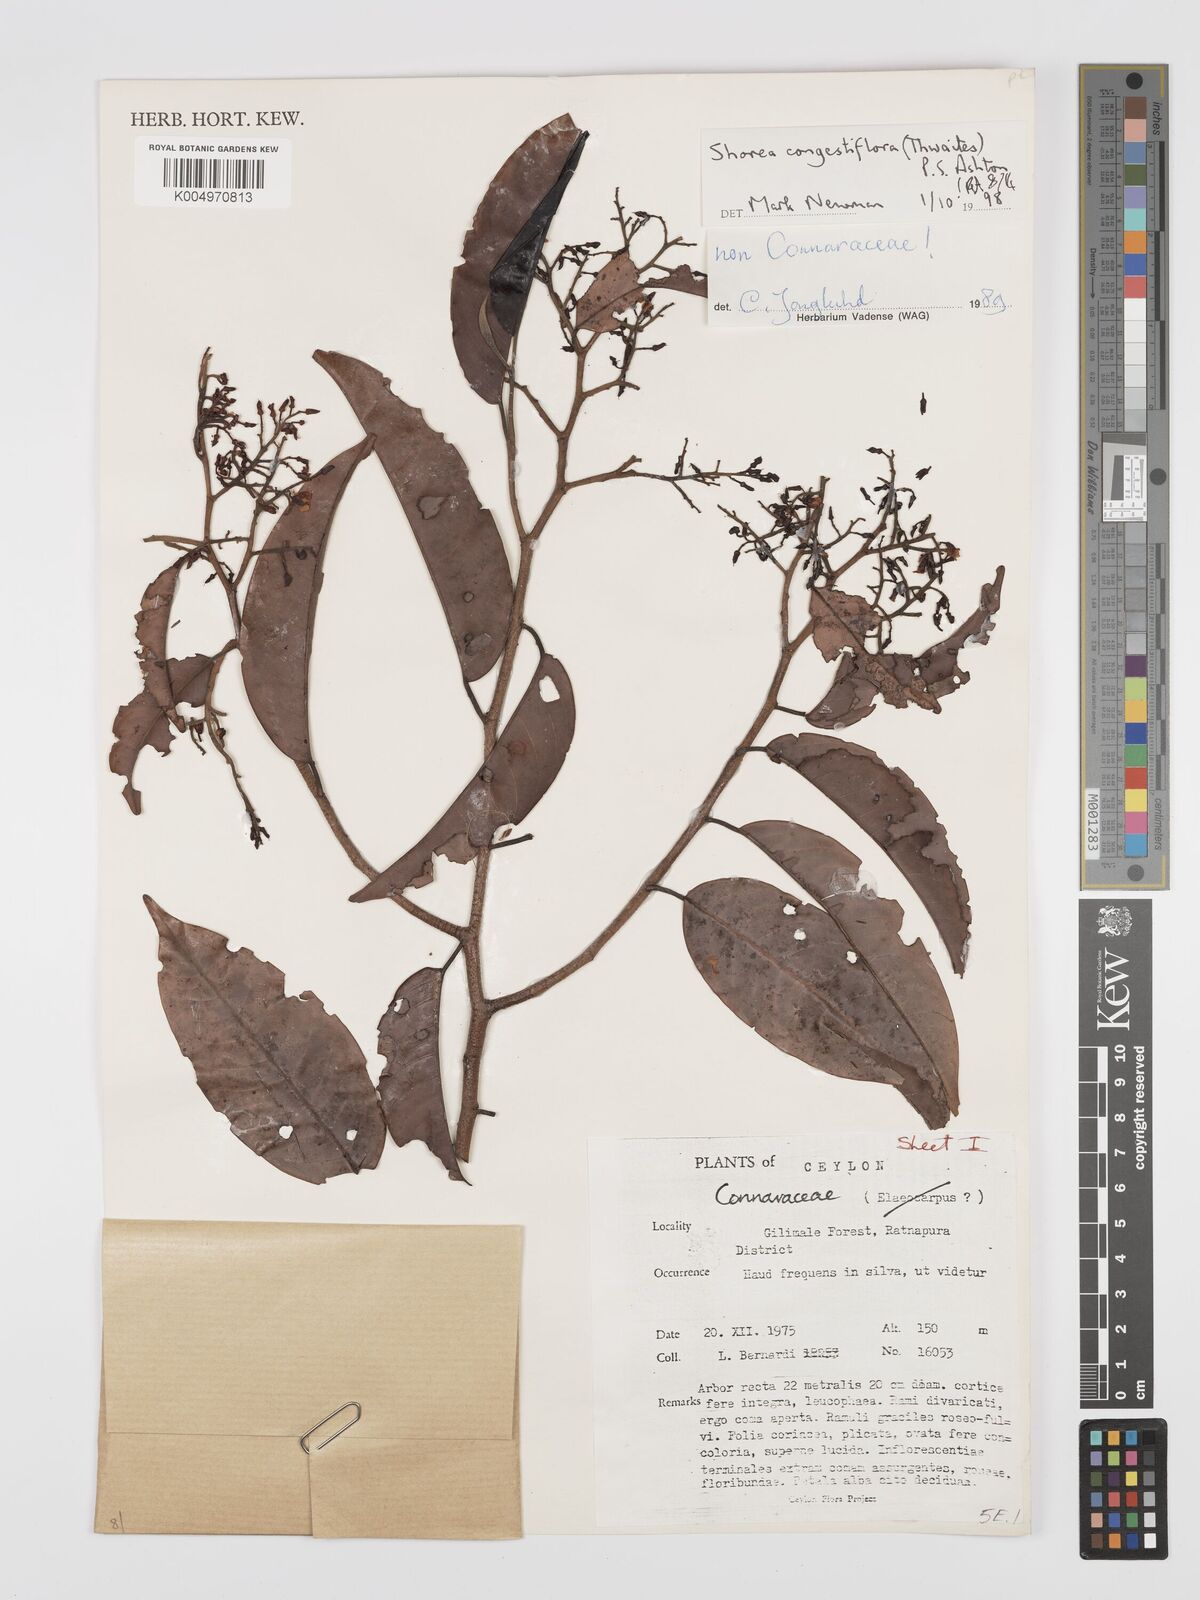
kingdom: Plantae
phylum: Tracheophyta
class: Magnoliopsida
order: Malvales
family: Dipterocarpaceae
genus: Doona
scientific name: Doona congestiflora
